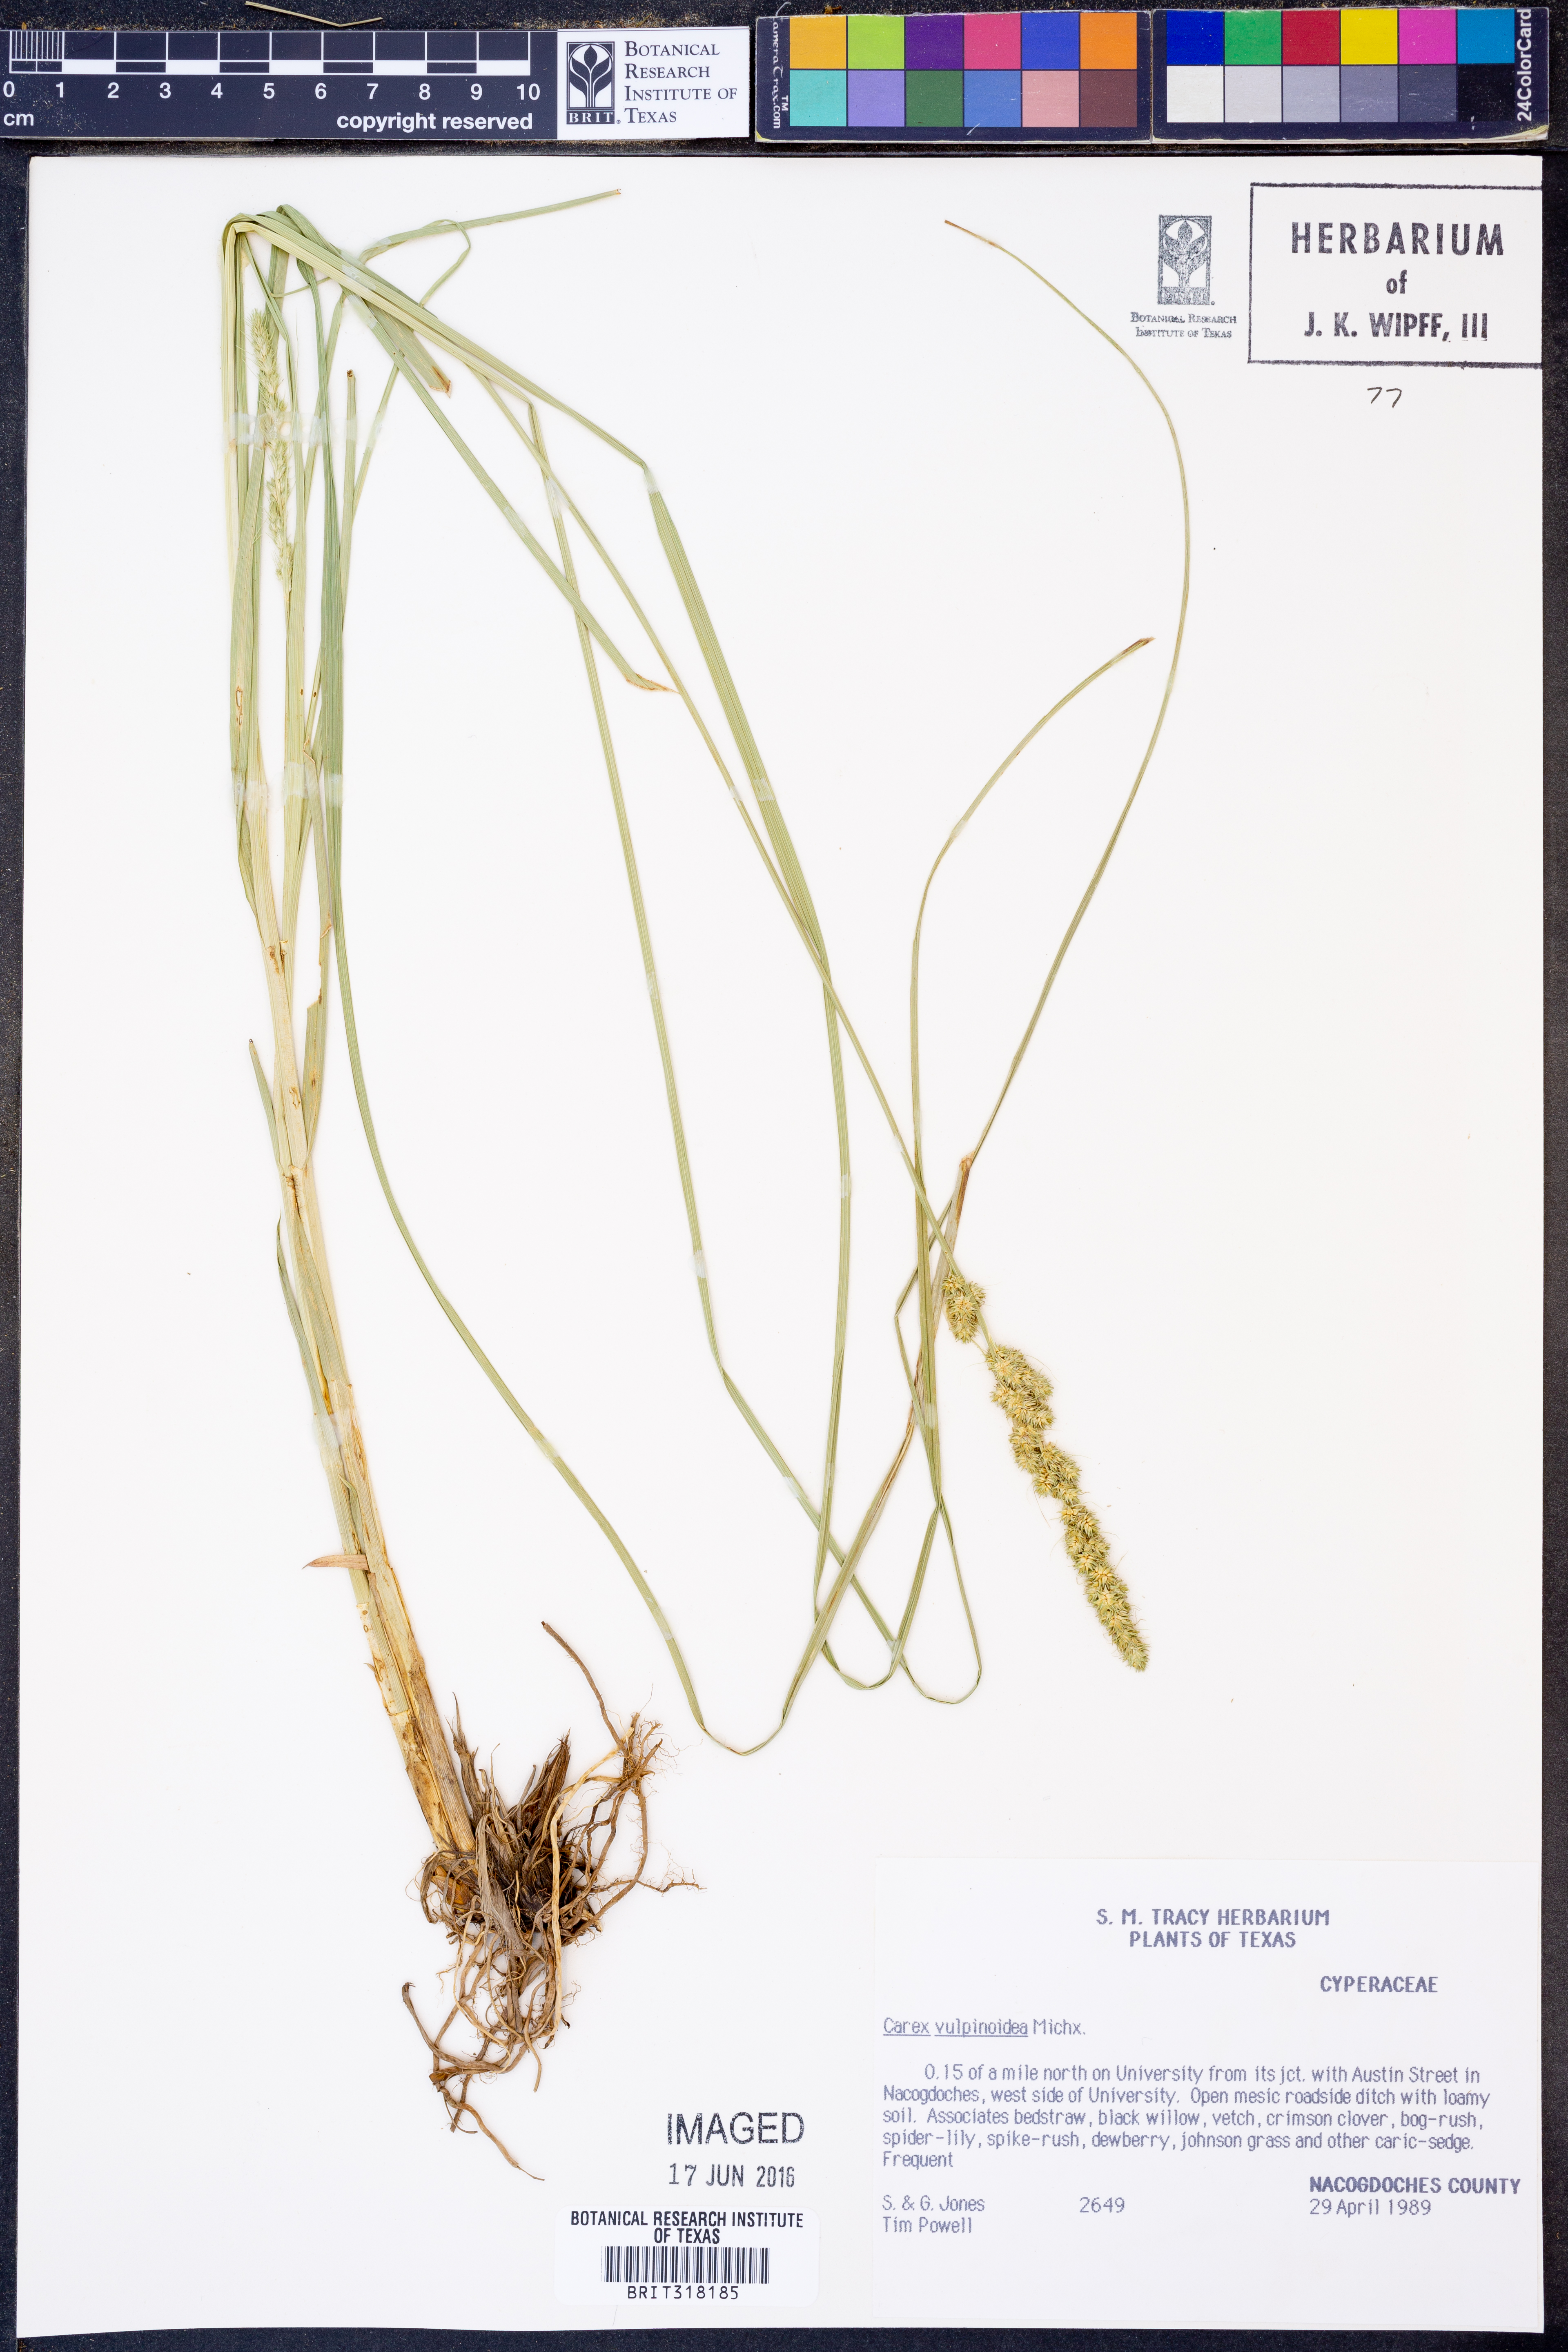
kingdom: Plantae
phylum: Tracheophyta
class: Liliopsida
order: Poales
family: Cyperaceae
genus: Carex
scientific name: Carex vulpinoidea
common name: American fox-sedge
